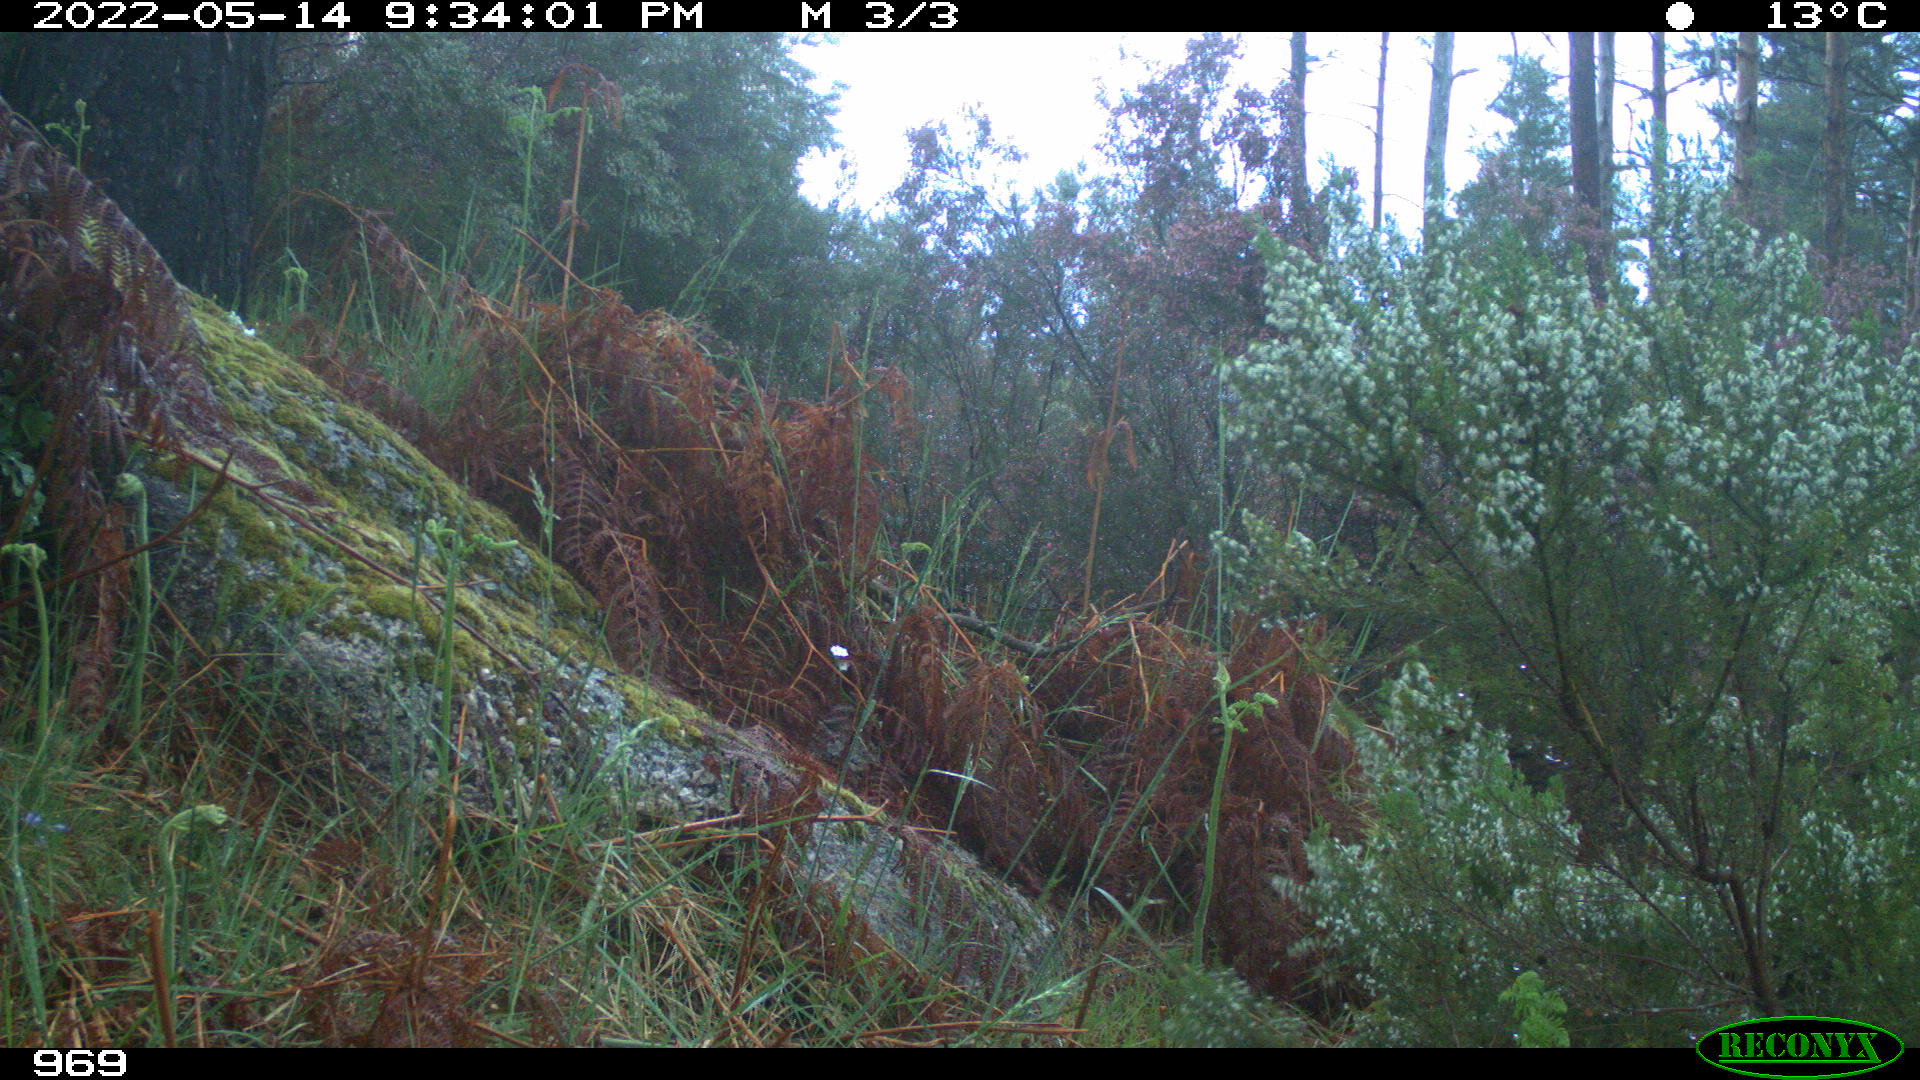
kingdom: Animalia
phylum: Chordata
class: Mammalia
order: Artiodactyla
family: Suidae
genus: Sus
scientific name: Sus scrofa
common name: Wild boar
